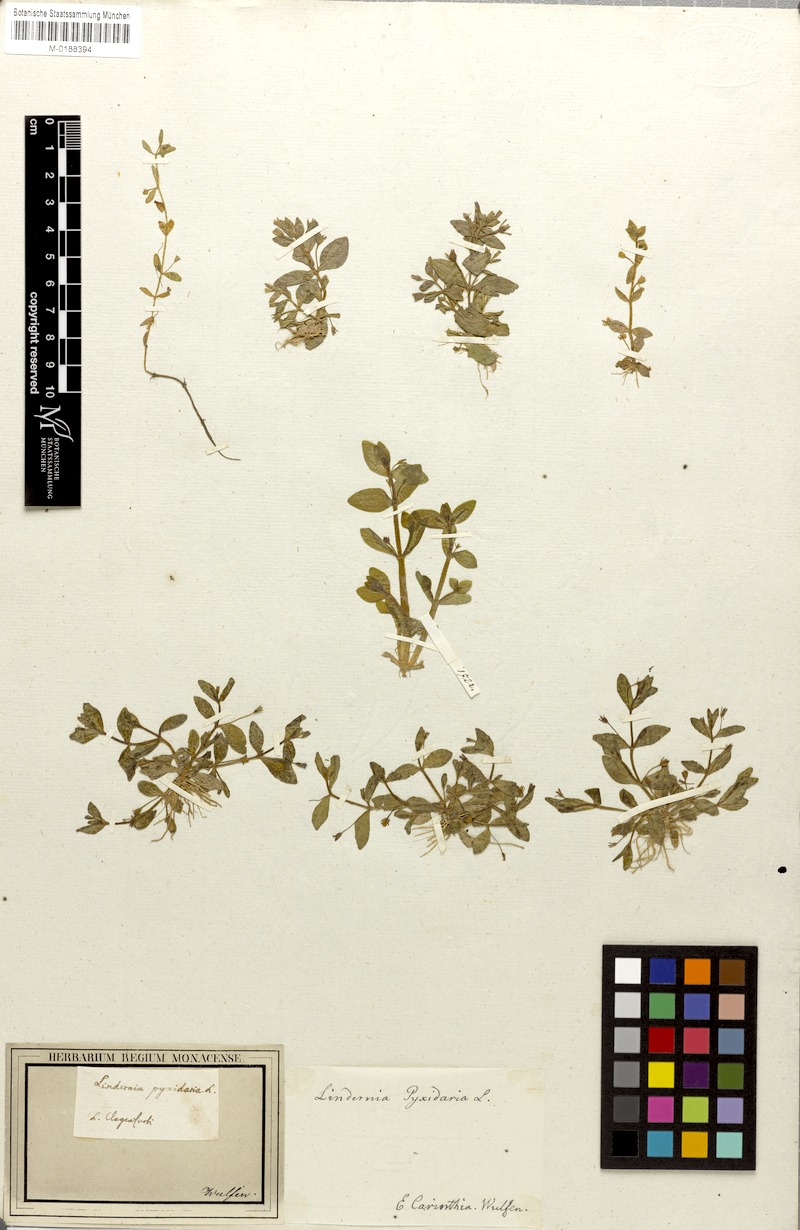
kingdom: Plantae
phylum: Tracheophyta
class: Magnoliopsida
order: Lamiales
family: Linderniaceae
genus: Lindernia
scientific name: Lindernia procumbens
